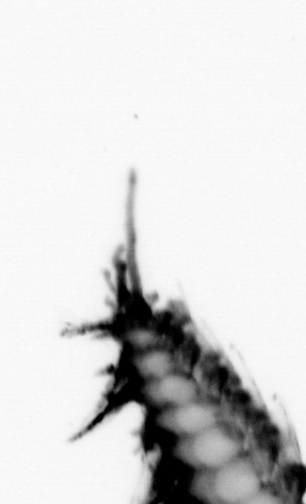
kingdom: Animalia
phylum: Annelida
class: Polychaeta
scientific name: Polychaeta
